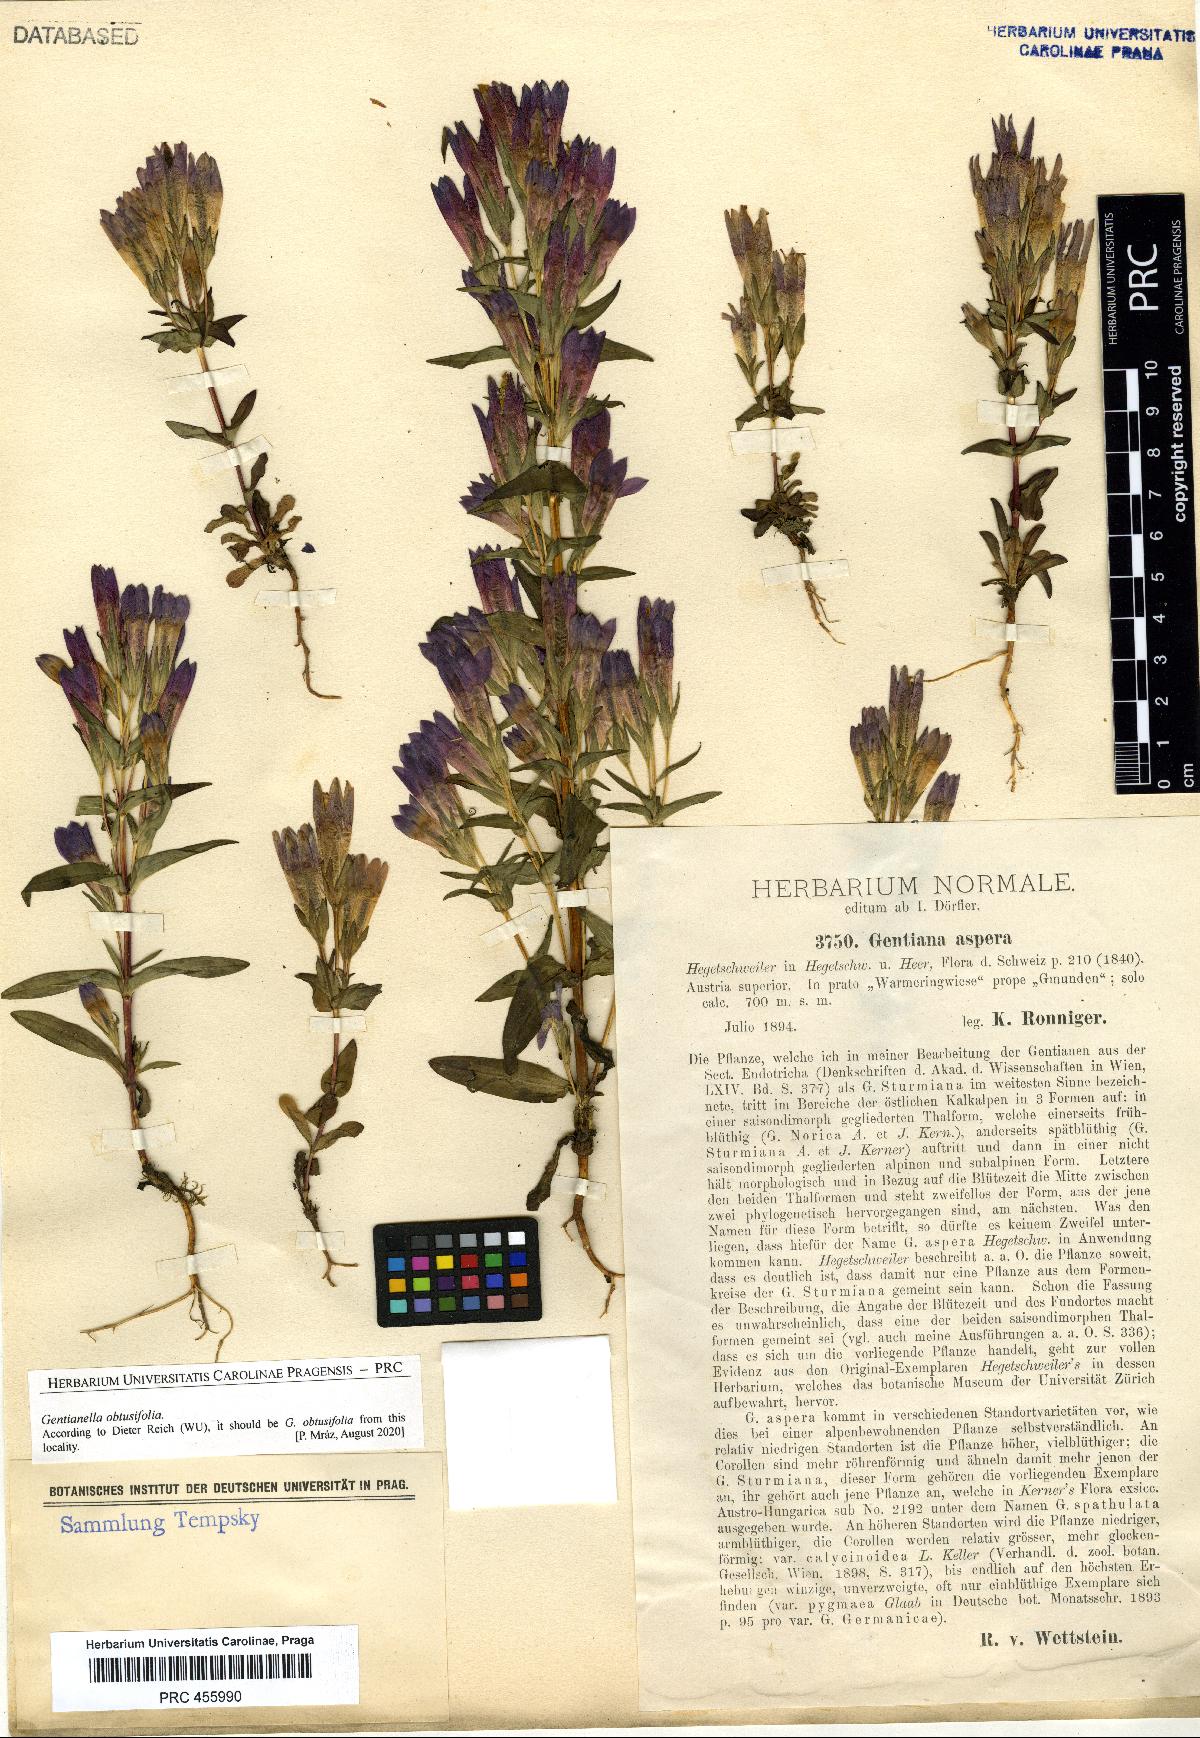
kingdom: Plantae
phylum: Tracheophyta
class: Magnoliopsida
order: Gentianales
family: Gentianaceae
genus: Gentianella
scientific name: Gentianella obtusifolia
